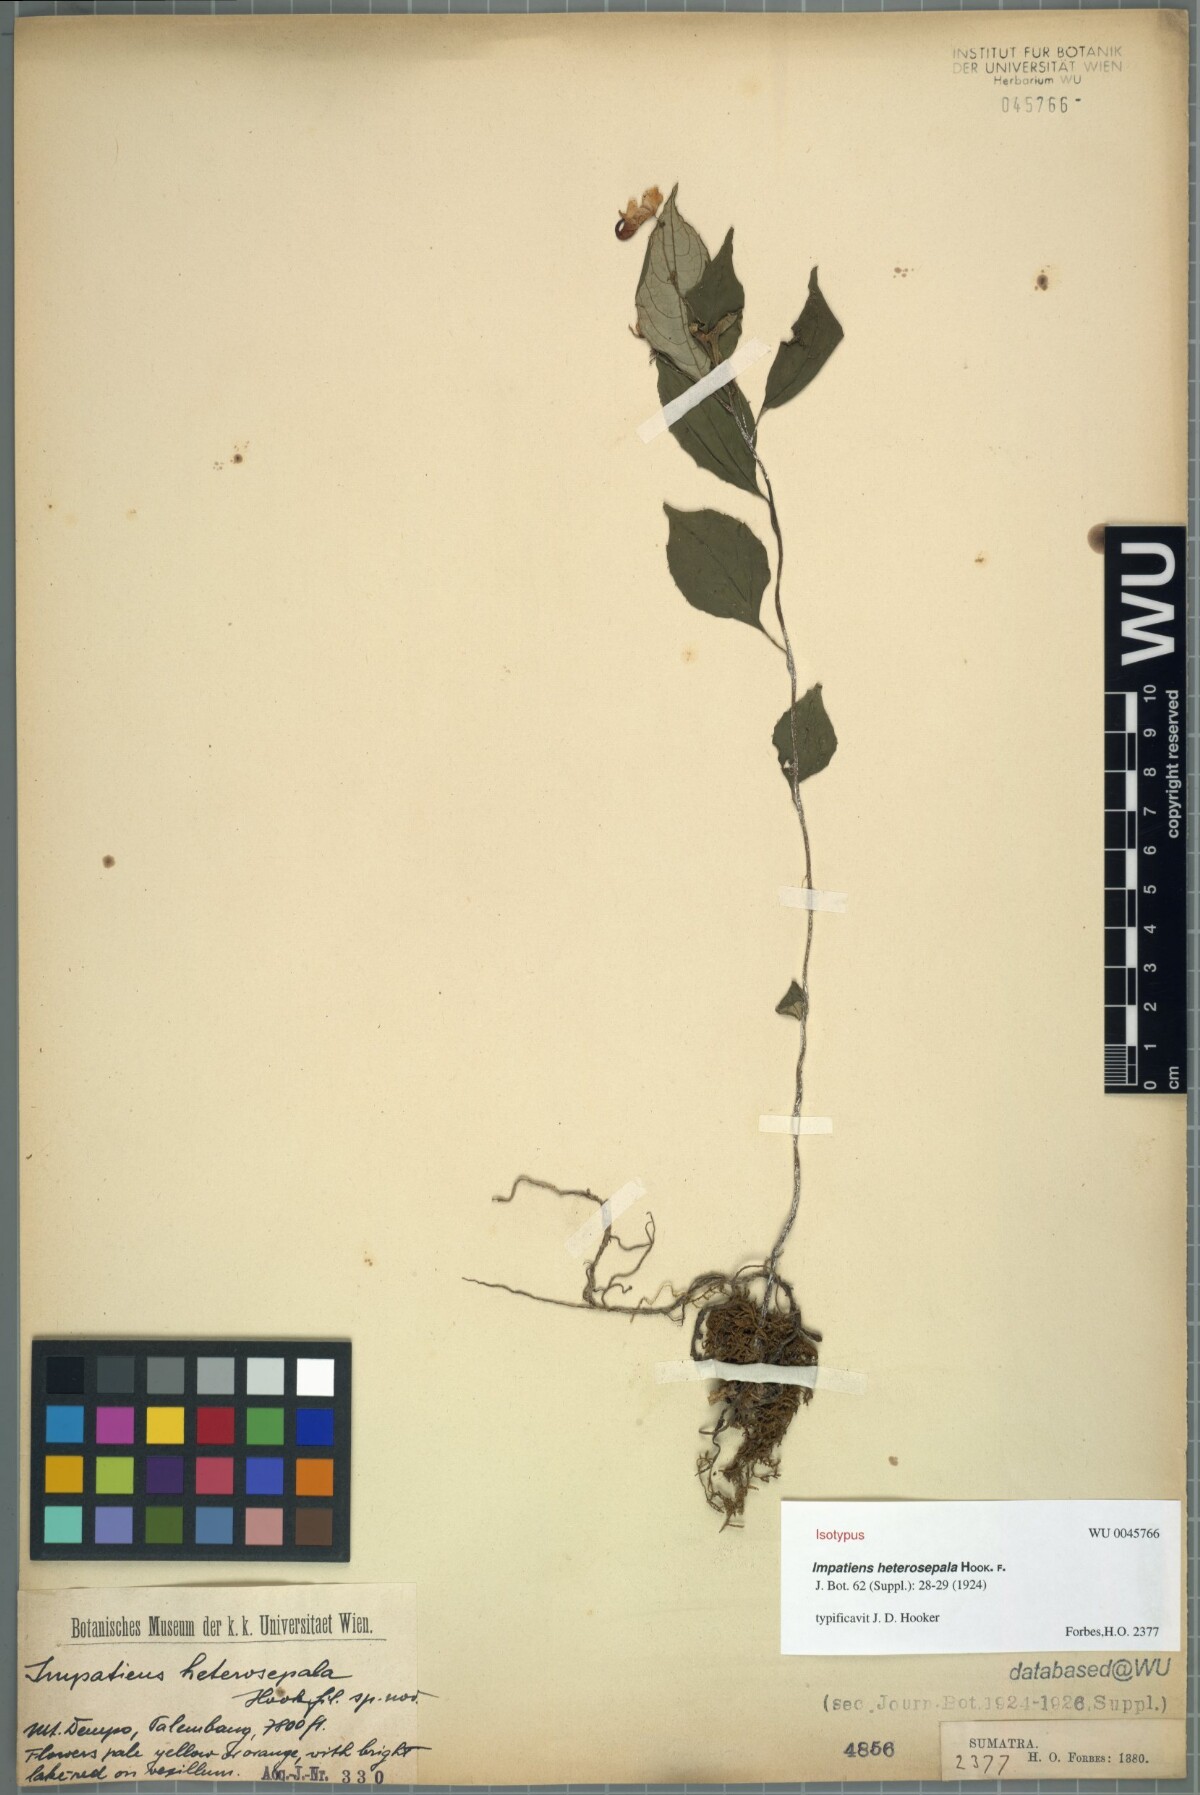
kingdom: Plantae
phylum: Tracheophyta
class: Magnoliopsida
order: Ericales
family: Balsaminaceae
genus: Impatiens
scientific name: Impatiens heterosepala
